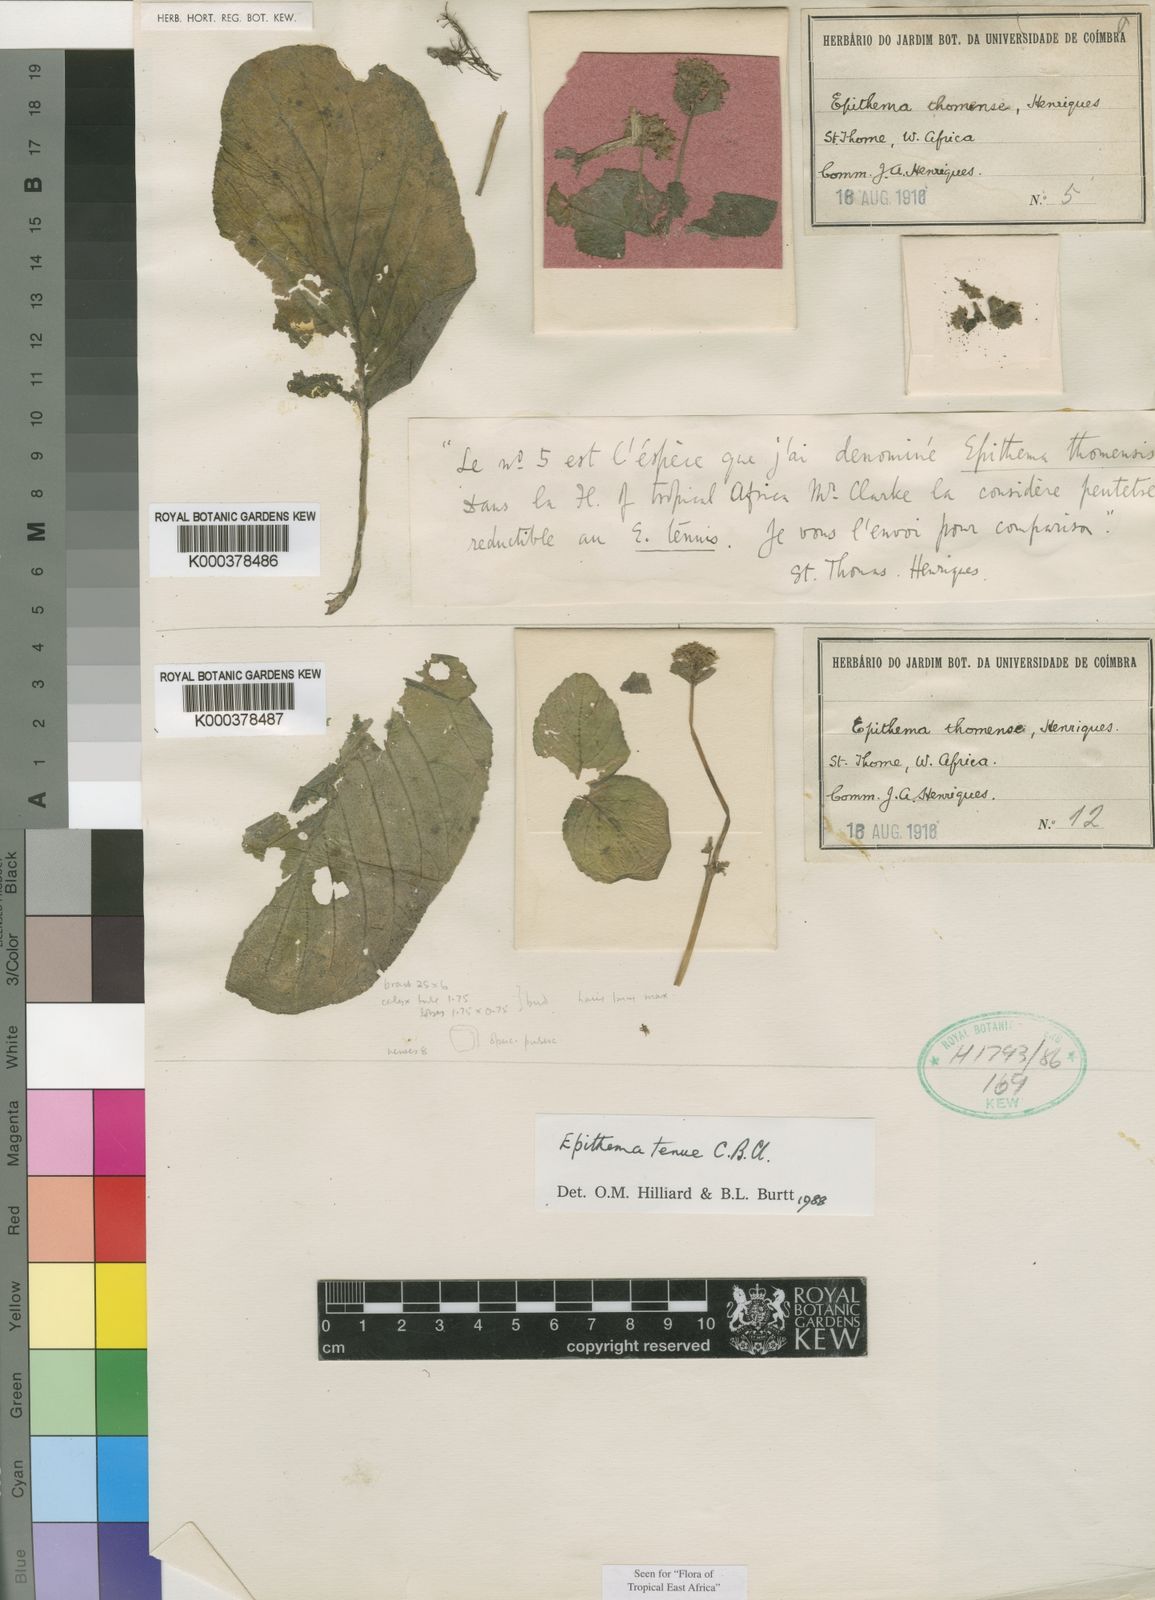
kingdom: Plantae
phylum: Tracheophyta
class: Magnoliopsida
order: Lamiales
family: Gesneriaceae
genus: Epithema
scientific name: Epithema tenue
